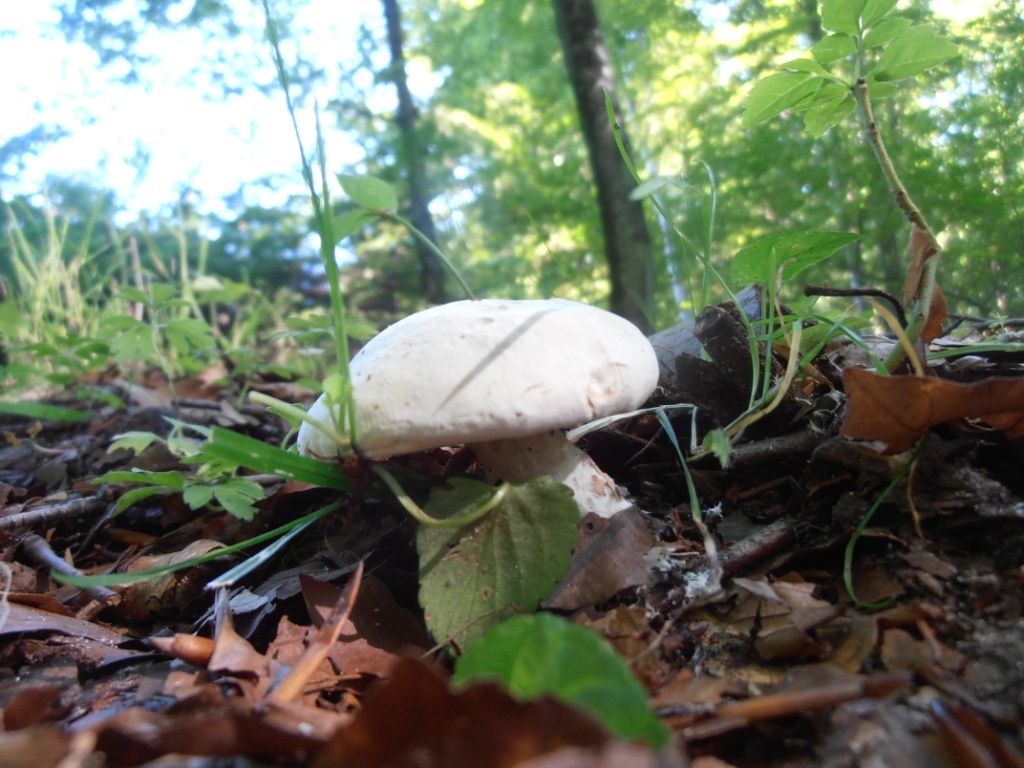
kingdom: Fungi
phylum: Basidiomycota
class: Agaricomycetes
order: Agaricales
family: Entolomataceae
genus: Clitopilus
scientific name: Clitopilus prunulus
